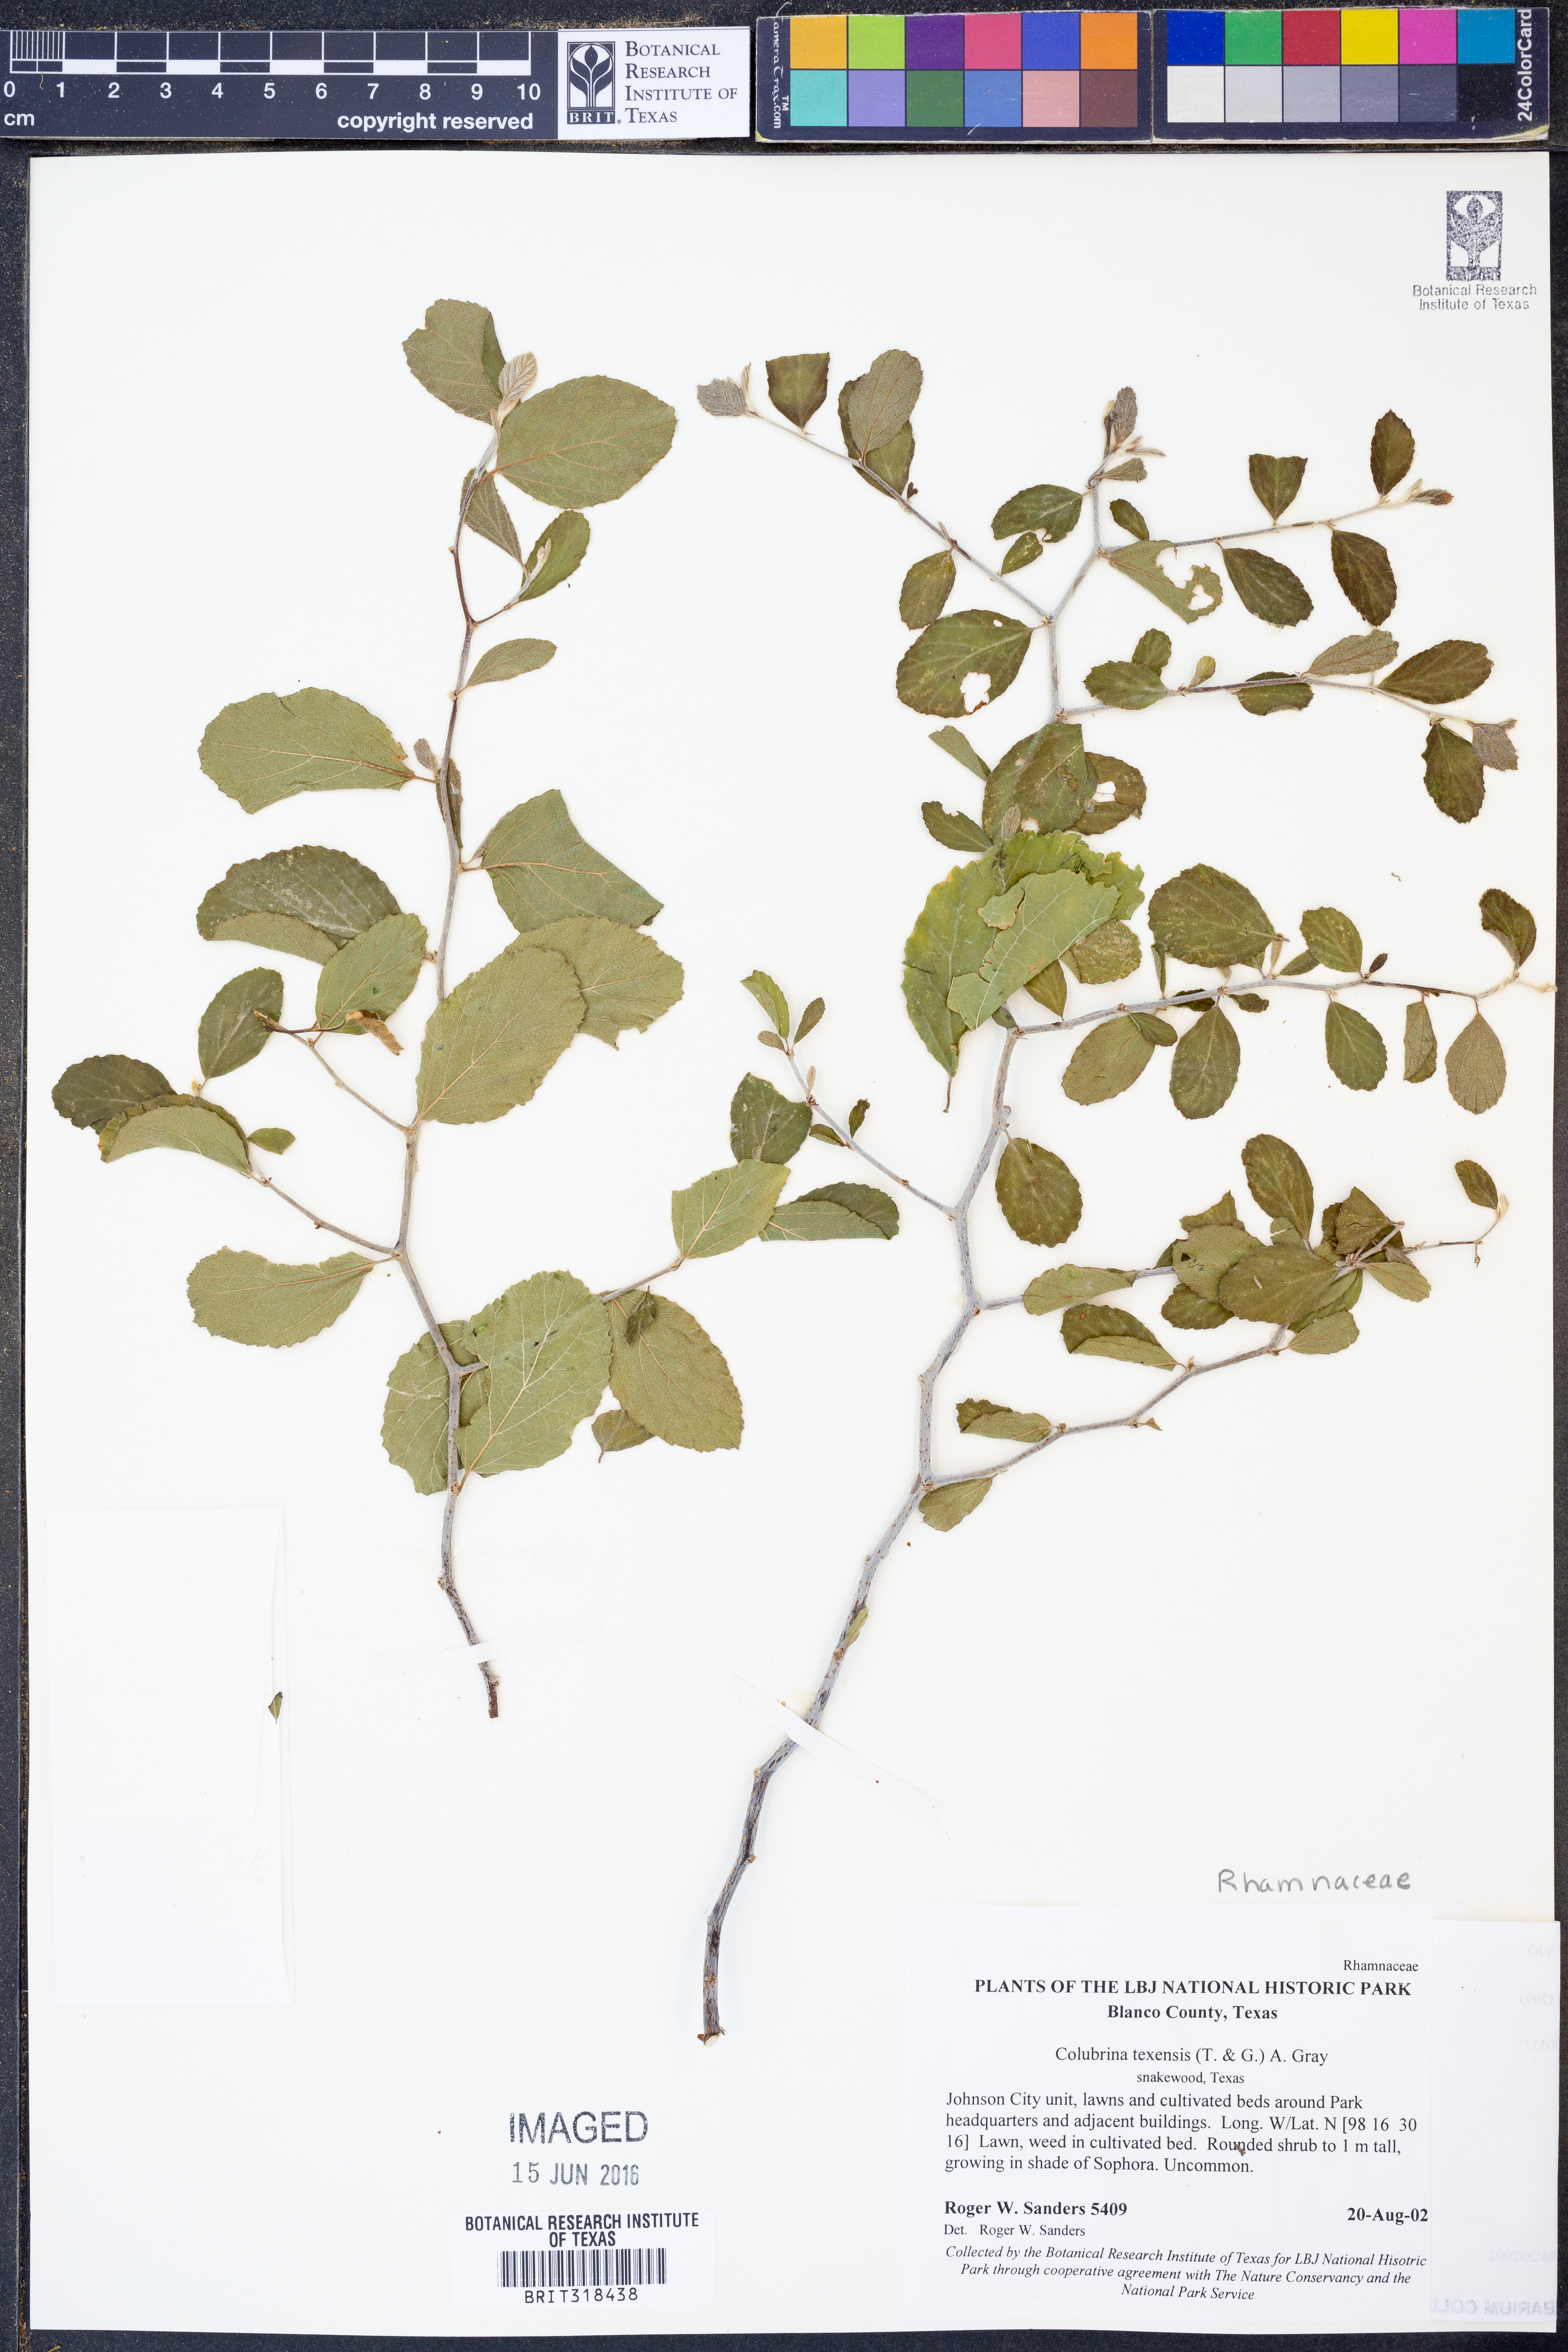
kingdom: Plantae
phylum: Tracheophyta
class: Magnoliopsida
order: Rosales
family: Rhamnaceae
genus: Colubrina
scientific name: Colubrina texensis
